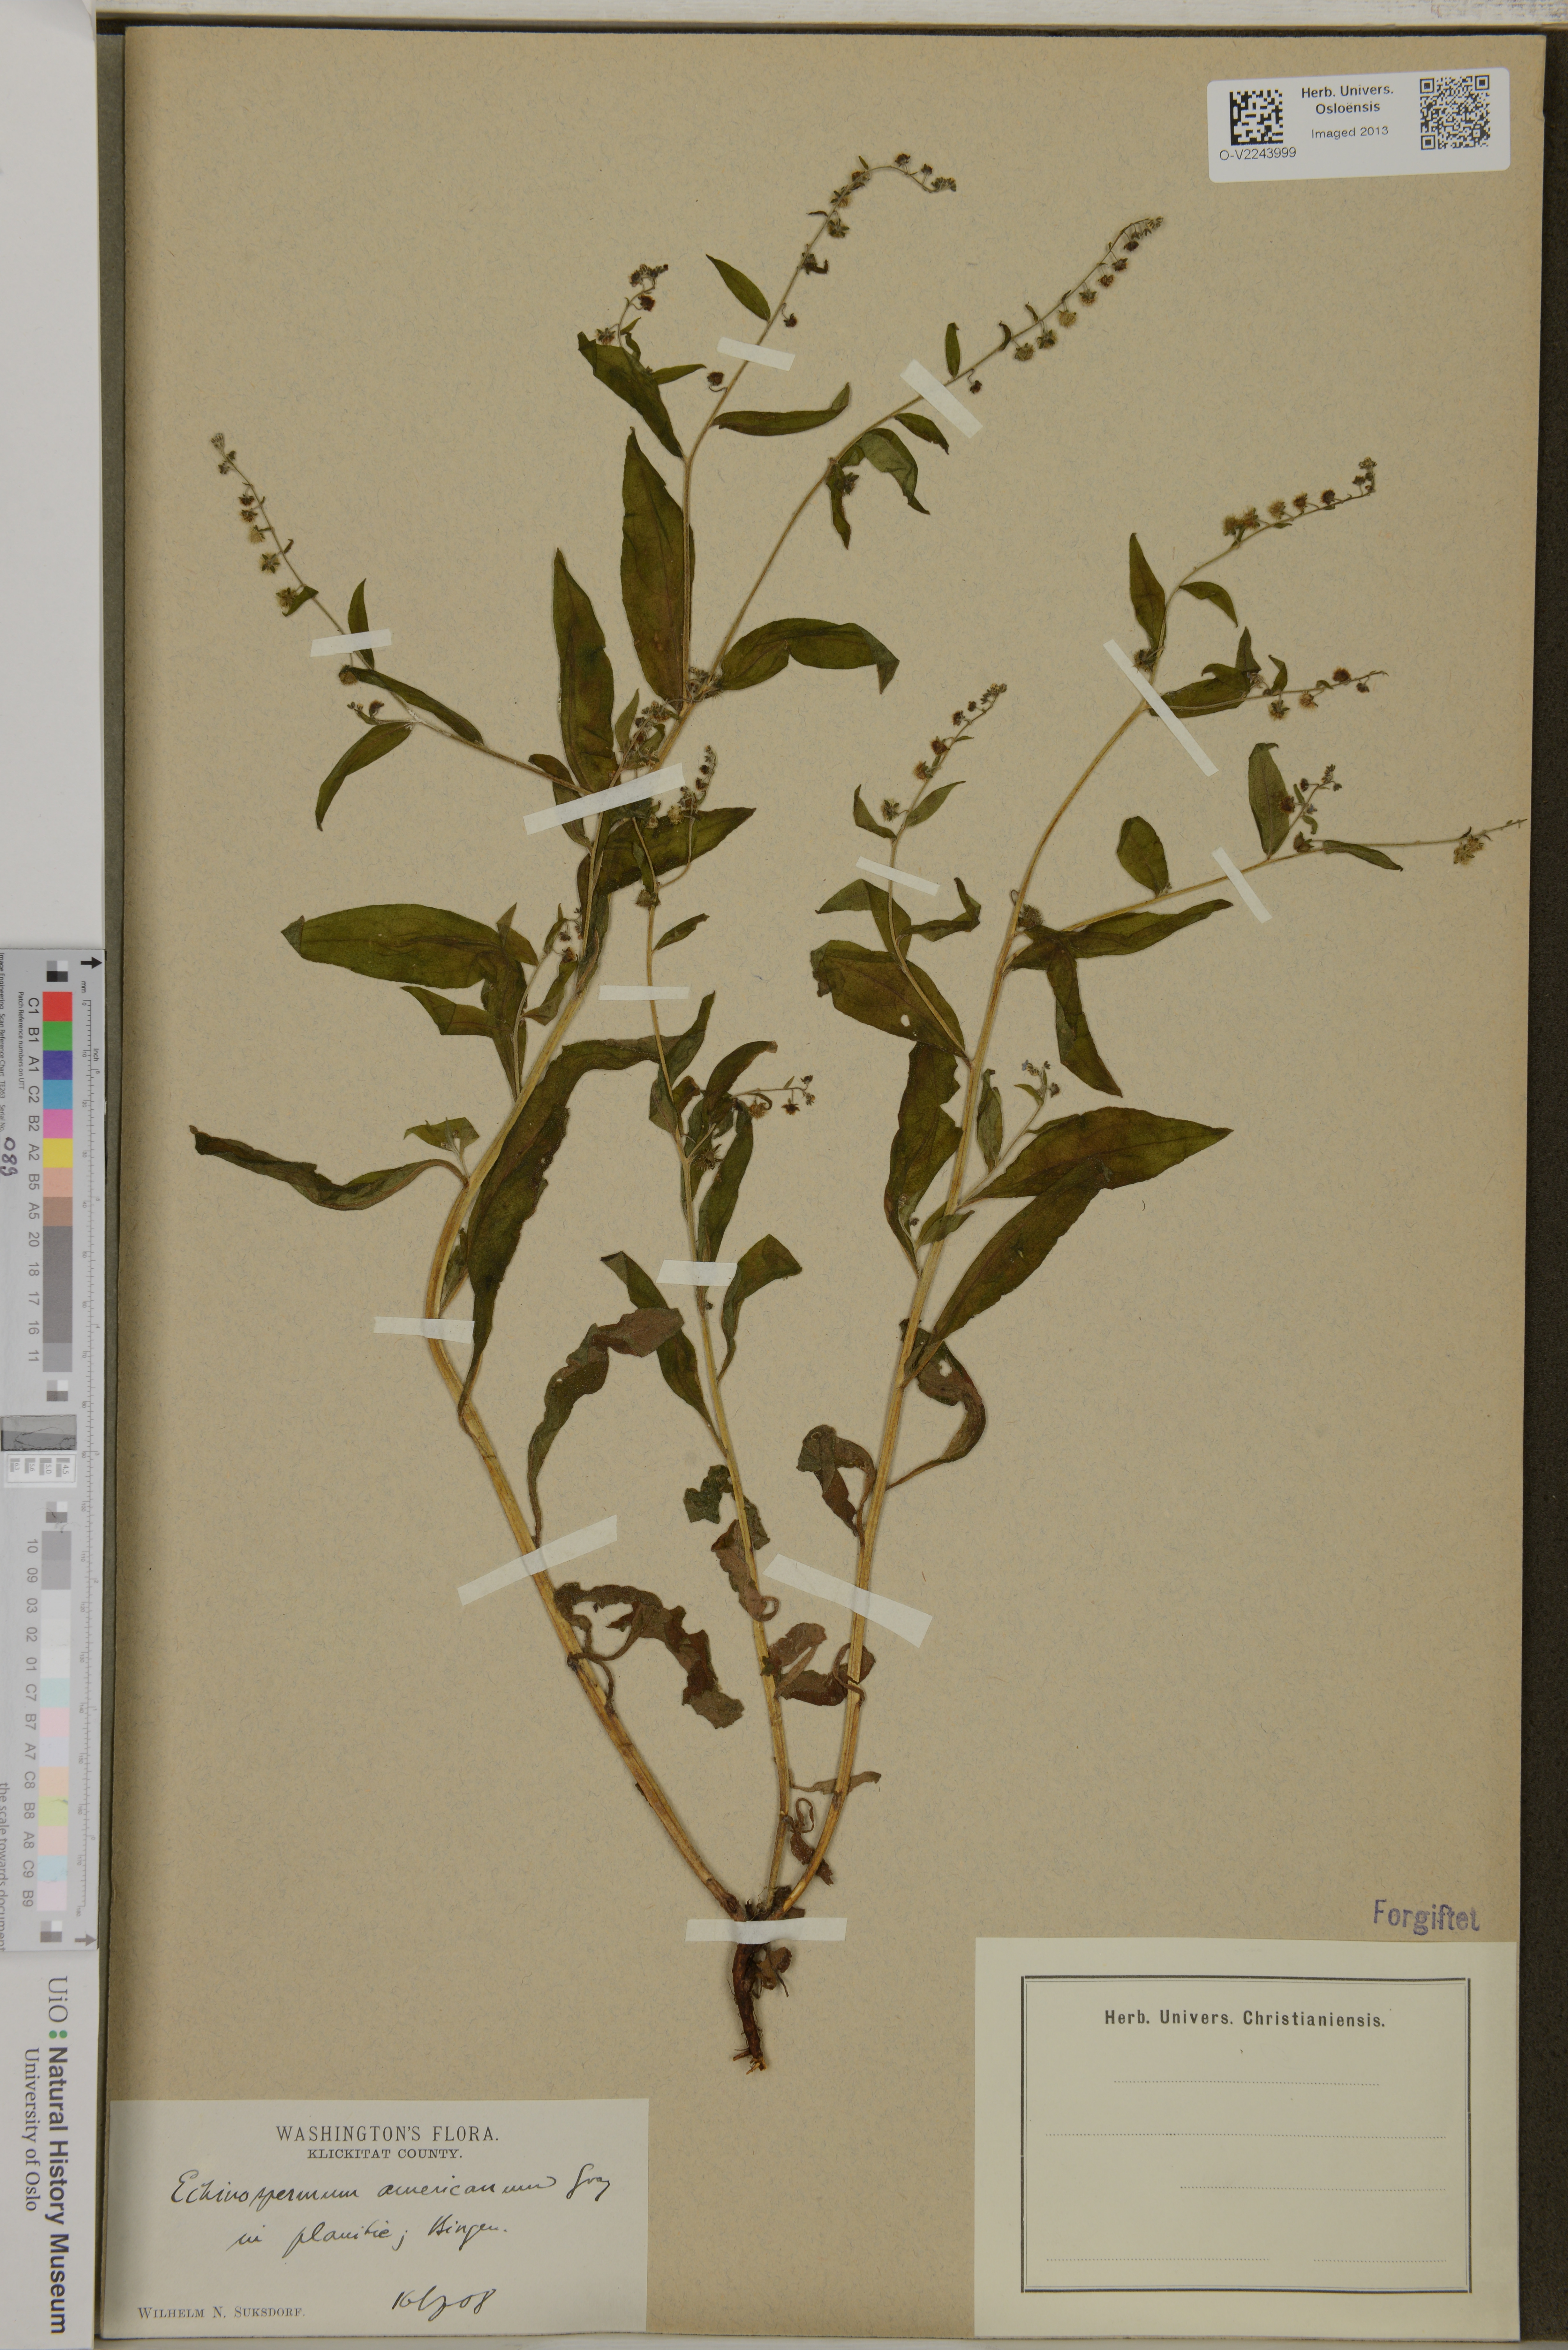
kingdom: Plantae
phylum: Tracheophyta
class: Magnoliopsida
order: Boraginales
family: Boraginaceae
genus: Lappula
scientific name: Lappula
